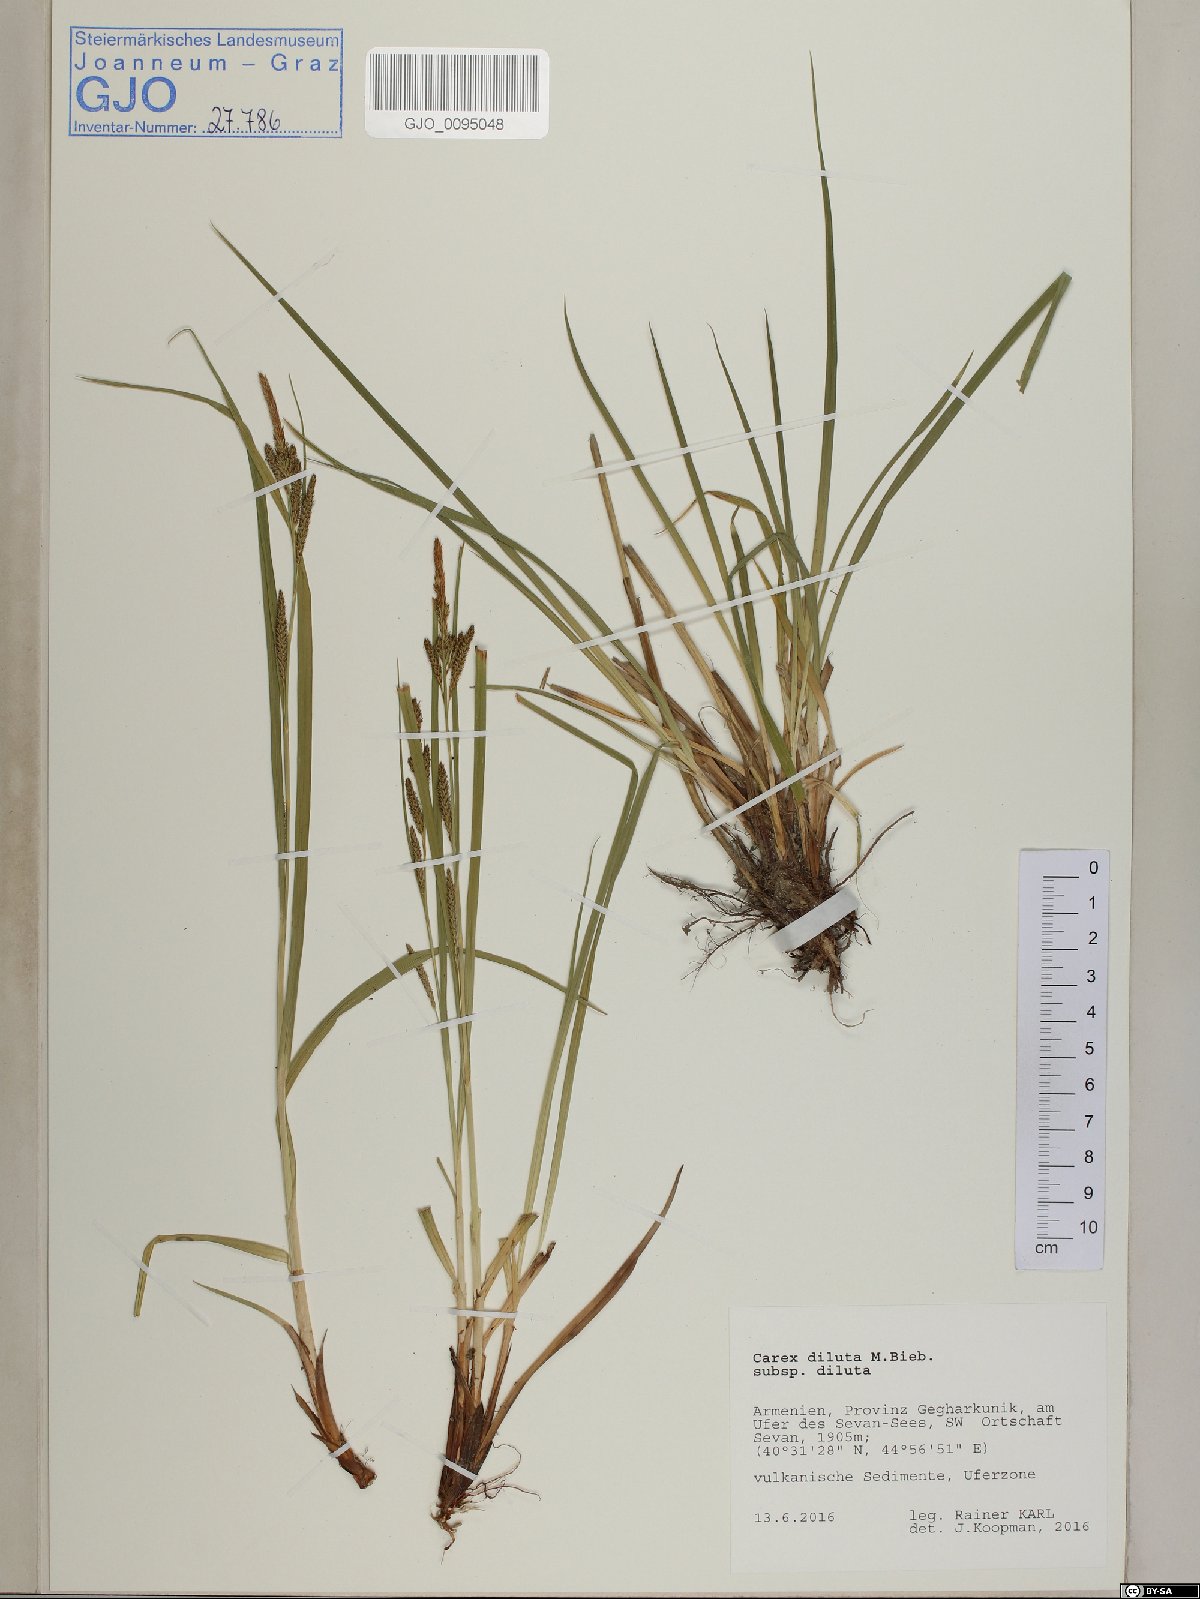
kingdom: Plantae
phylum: Tracheophyta
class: Liliopsida
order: Poales
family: Cyperaceae
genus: Carex
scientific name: Carex diluta
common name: Sedge
